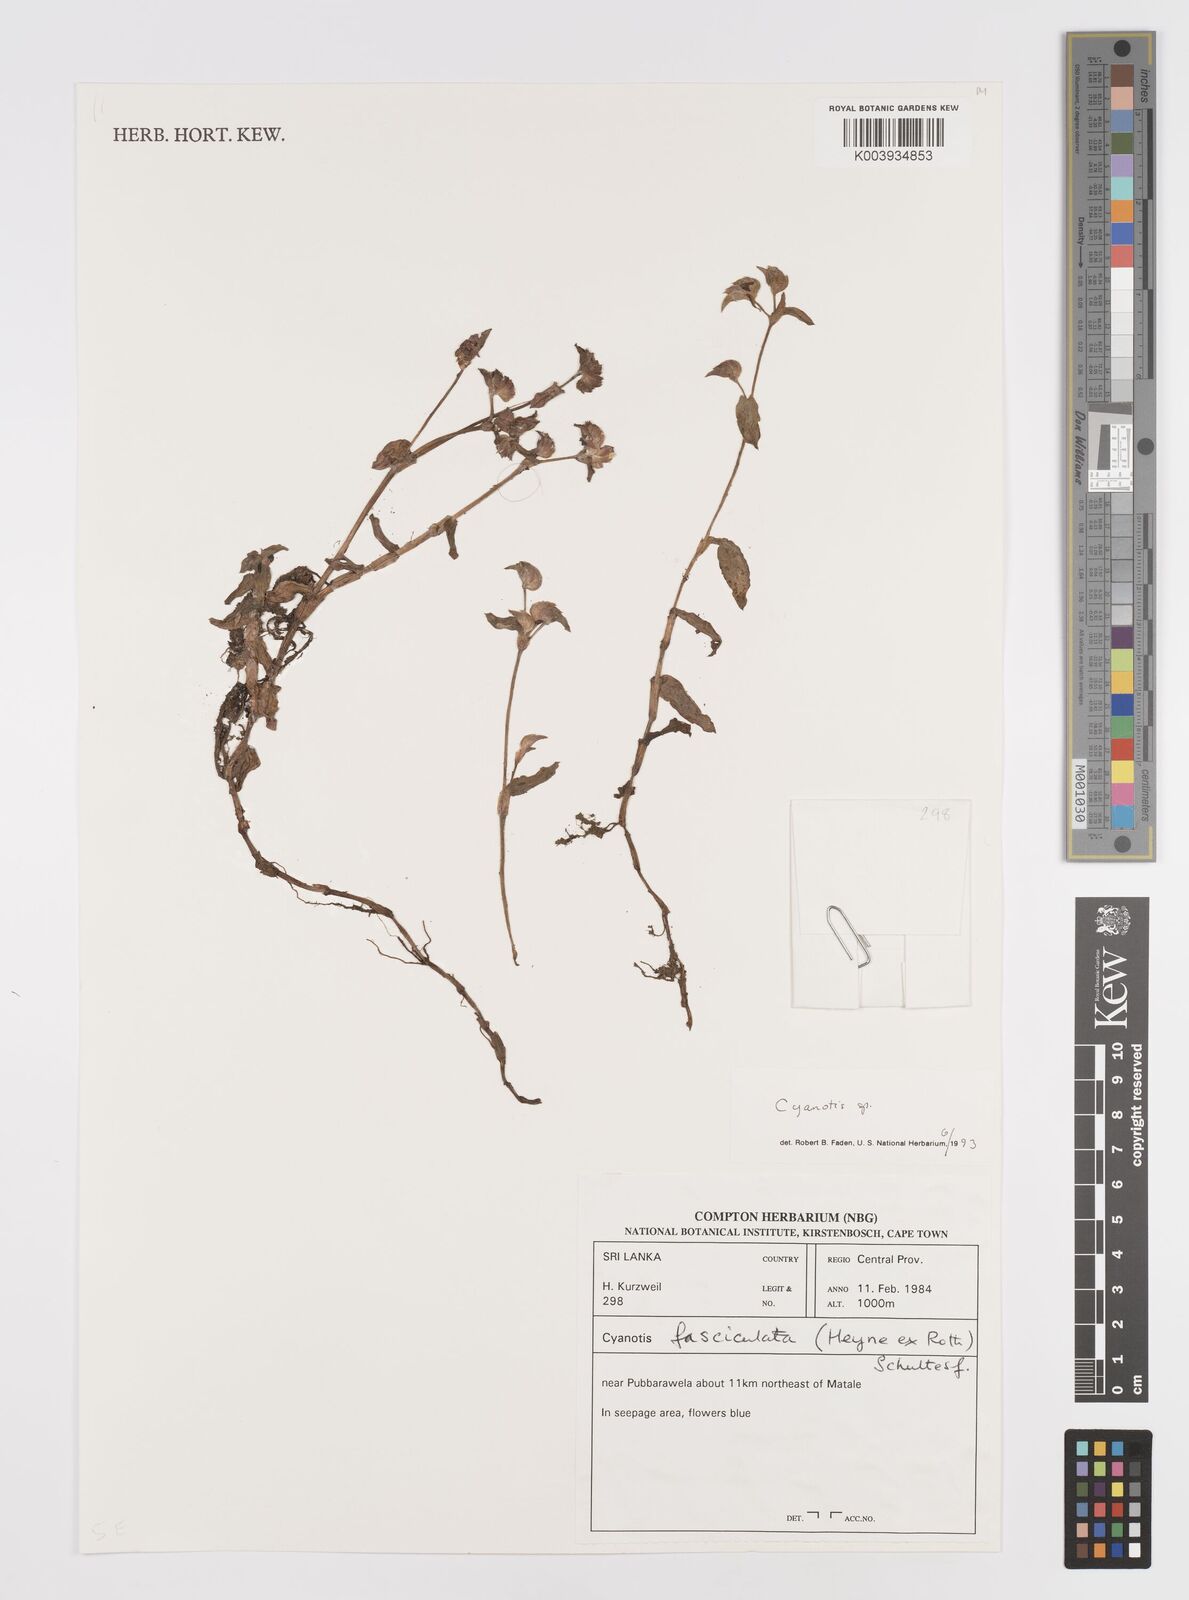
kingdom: Plantae
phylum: Tracheophyta
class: Liliopsida
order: Commelinales
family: Commelinaceae
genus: Cyanotis
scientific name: Cyanotis
